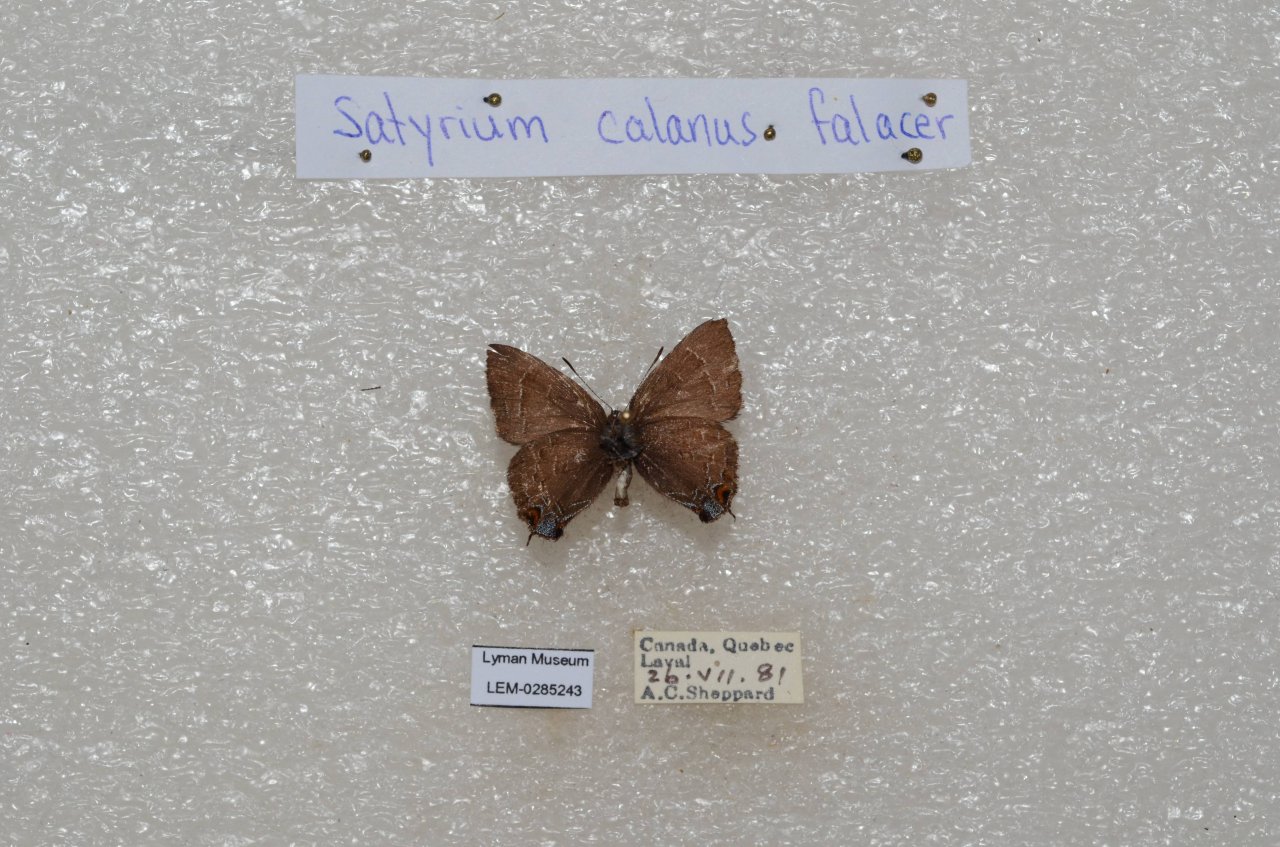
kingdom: Animalia
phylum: Arthropoda
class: Insecta
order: Lepidoptera
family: Lycaenidae
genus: Satyrium
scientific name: Satyrium calanus
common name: Banded Hairstreak
